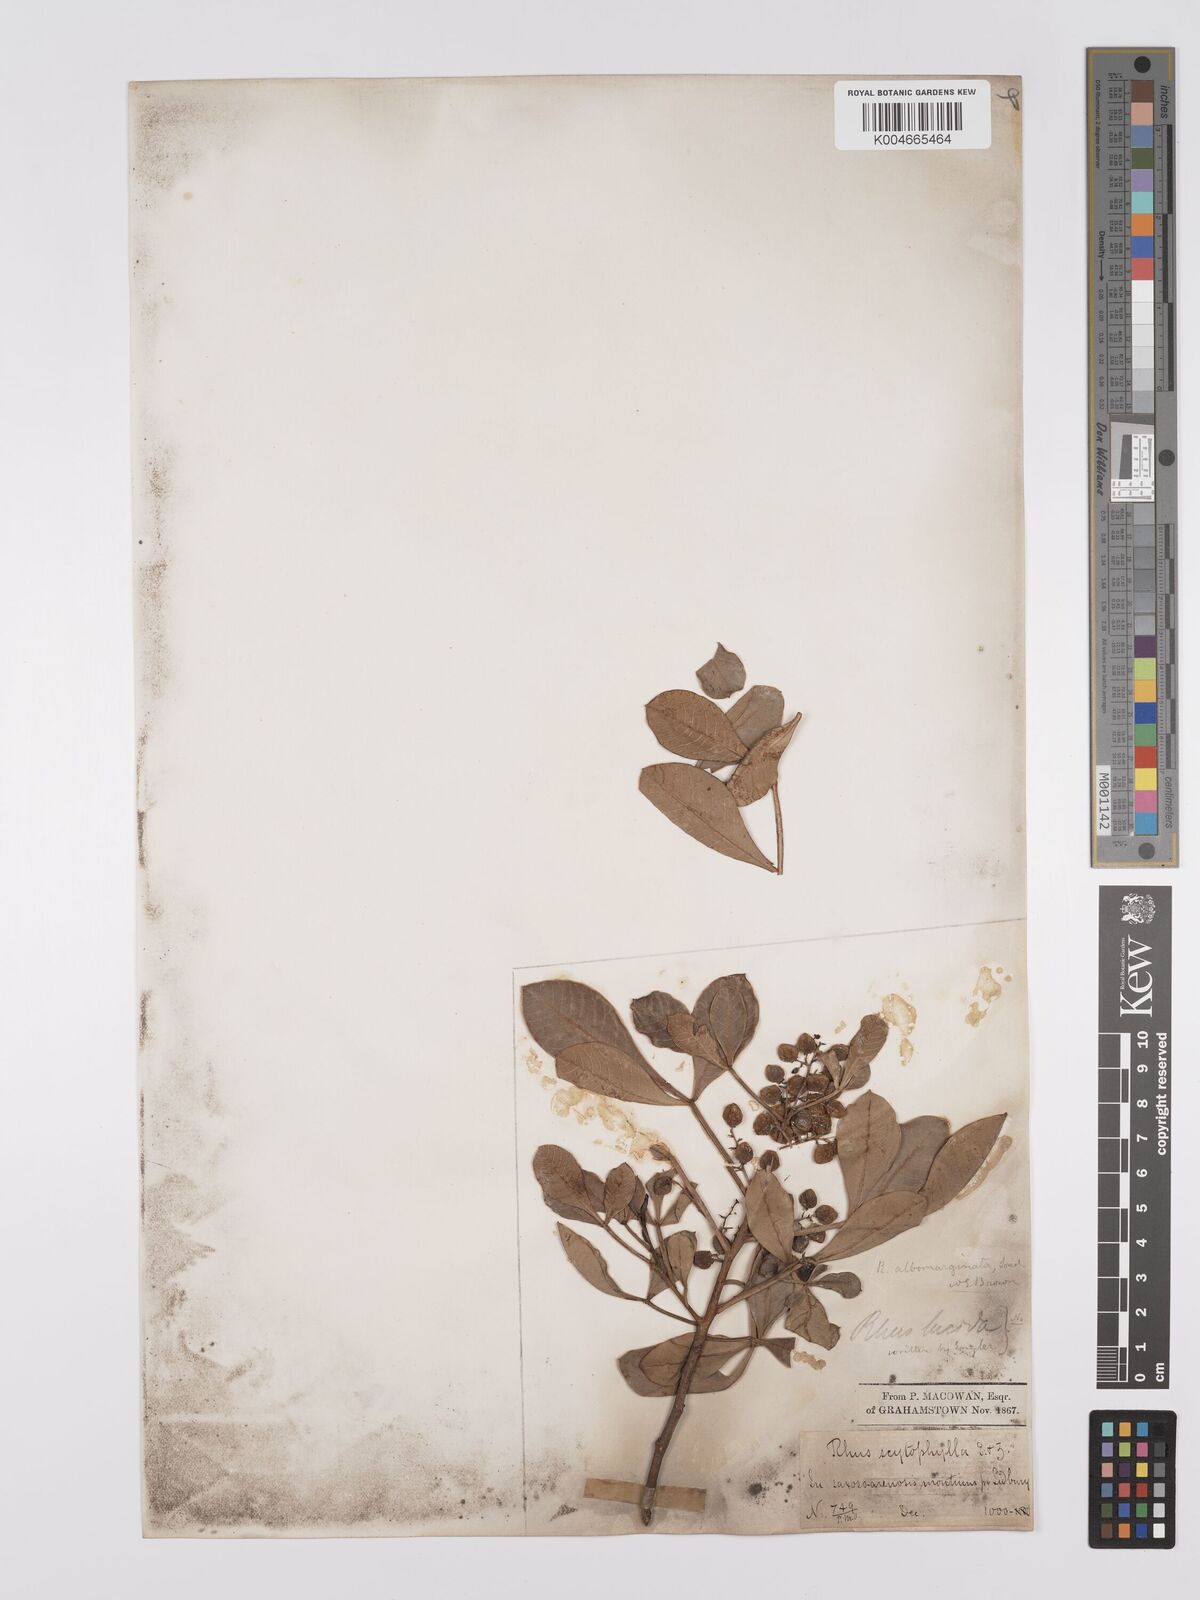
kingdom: Plantae
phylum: Tracheophyta
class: Magnoliopsida
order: Sapindales
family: Anacardiaceae
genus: Searsia
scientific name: Searsia albomarginata
